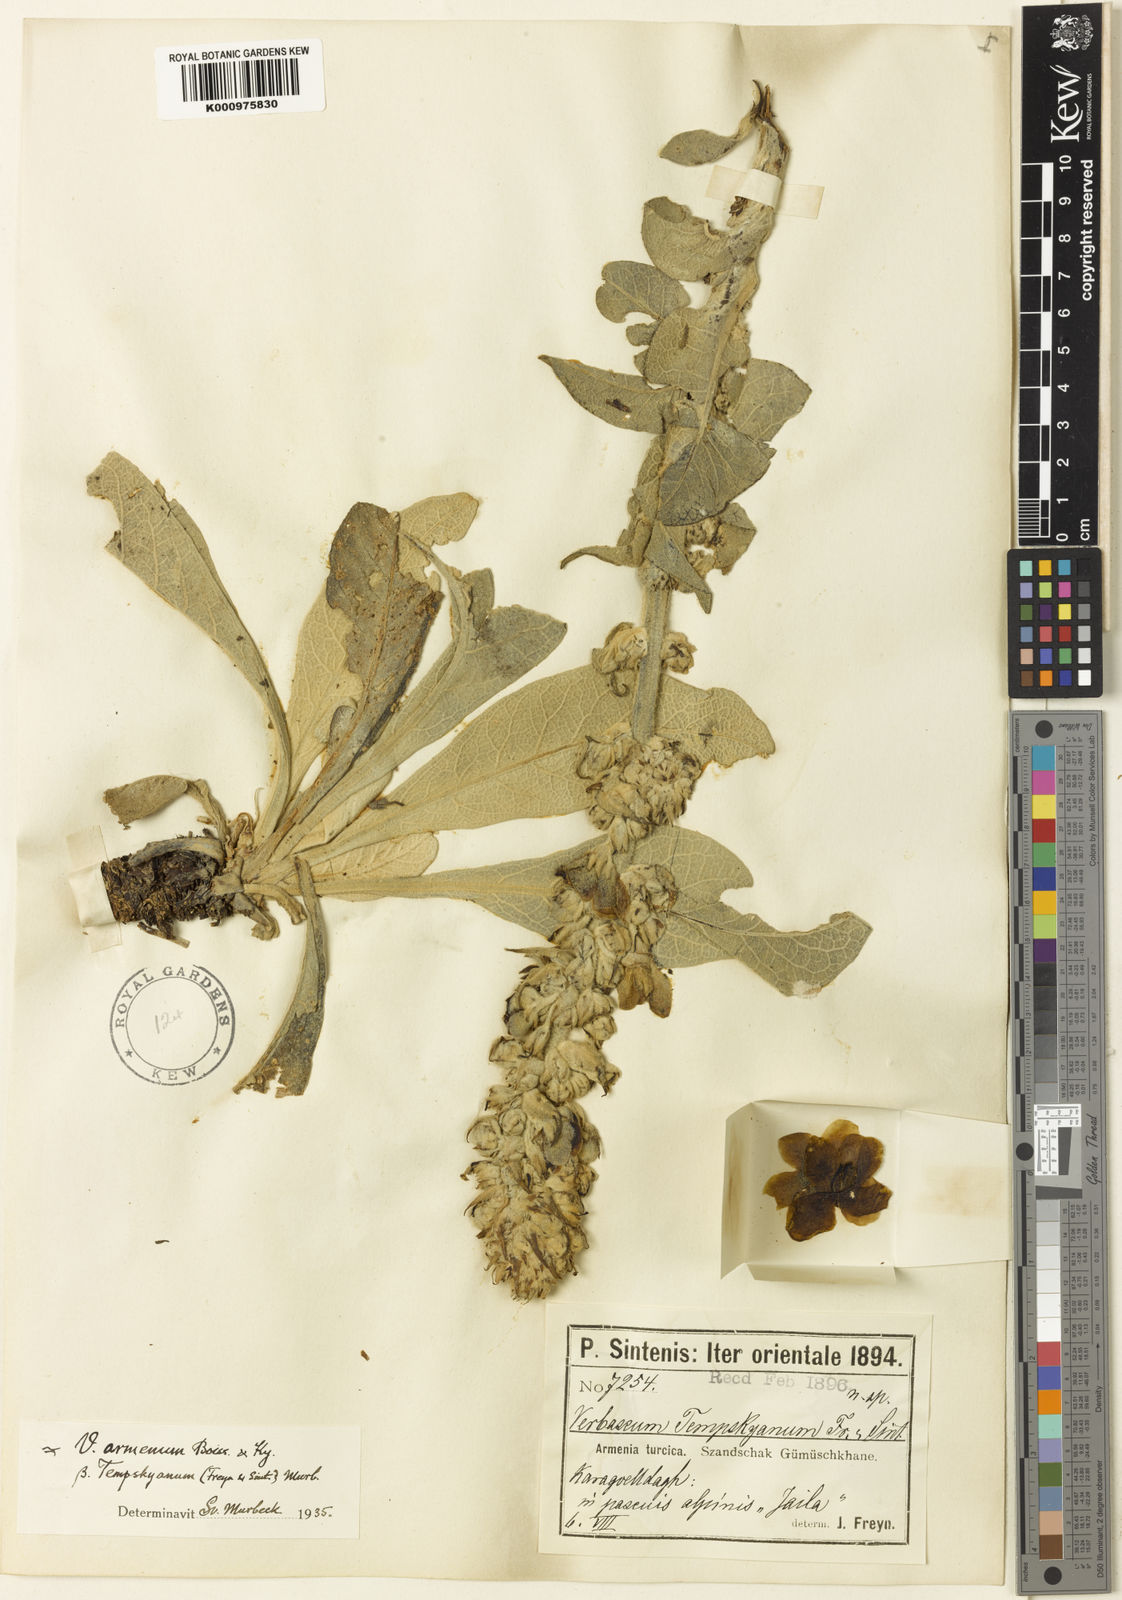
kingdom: Plantae
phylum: Tracheophyta
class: Magnoliopsida
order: Lamiales
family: Scrophulariaceae
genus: Verbascum
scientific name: Verbascum oreophilum
